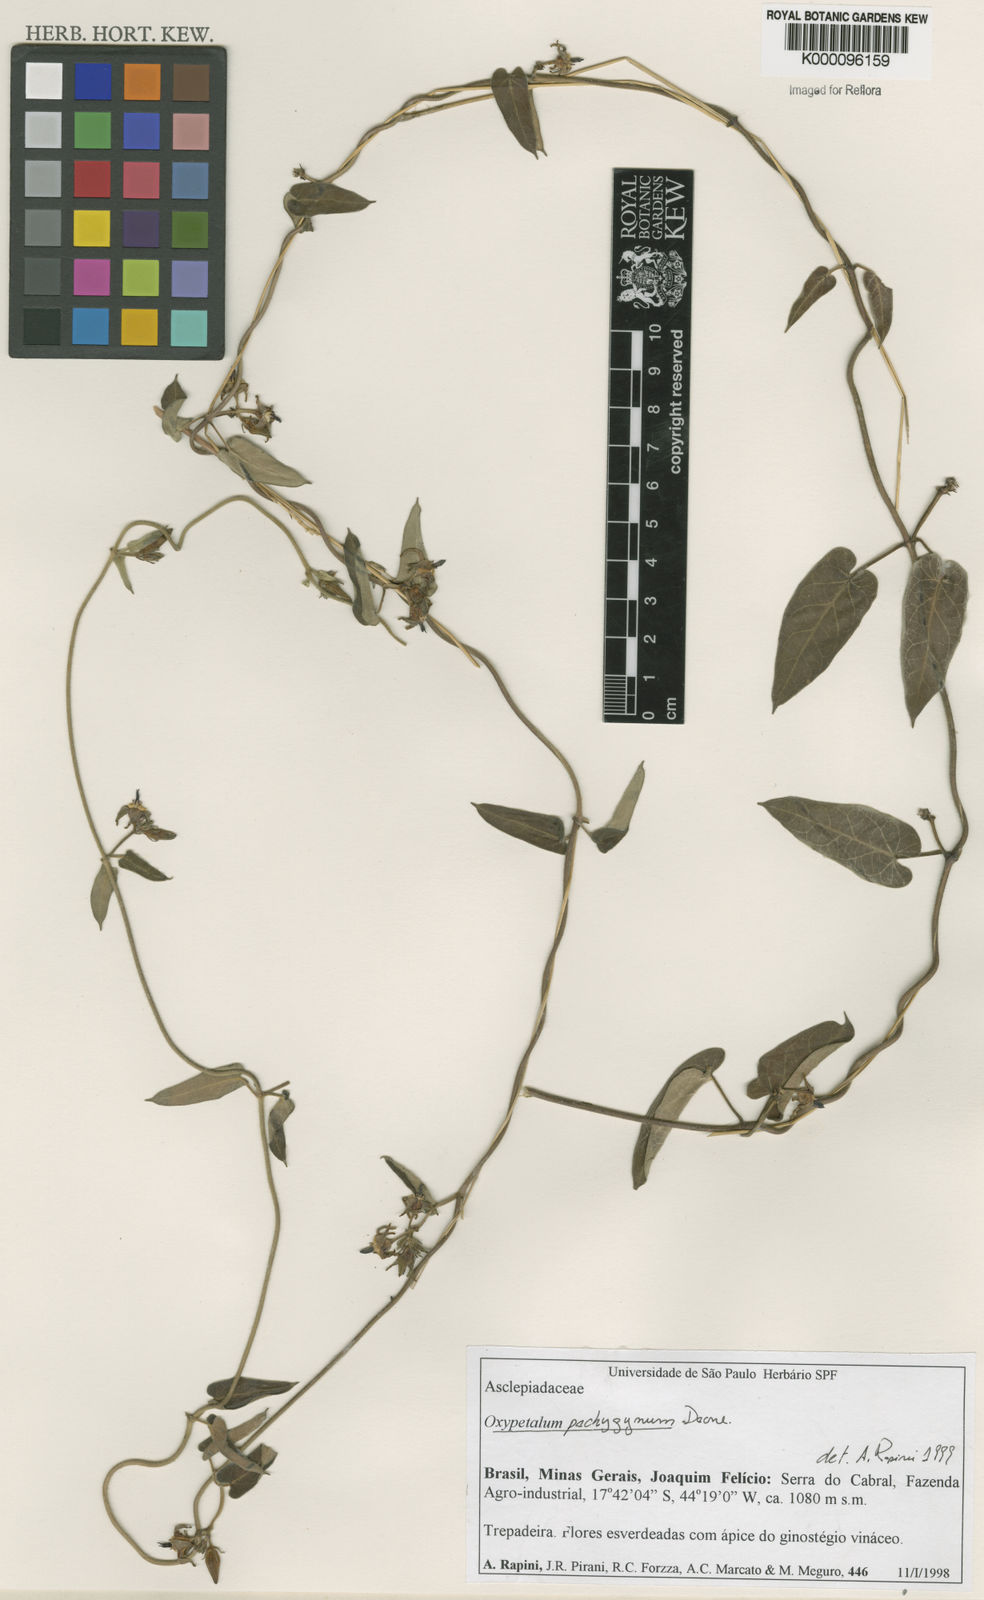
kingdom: Plantae
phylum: Tracheophyta
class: Magnoliopsida
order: Gentianales
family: Apocynaceae
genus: Oxypetalum
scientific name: Oxypetalum pachyglossum
